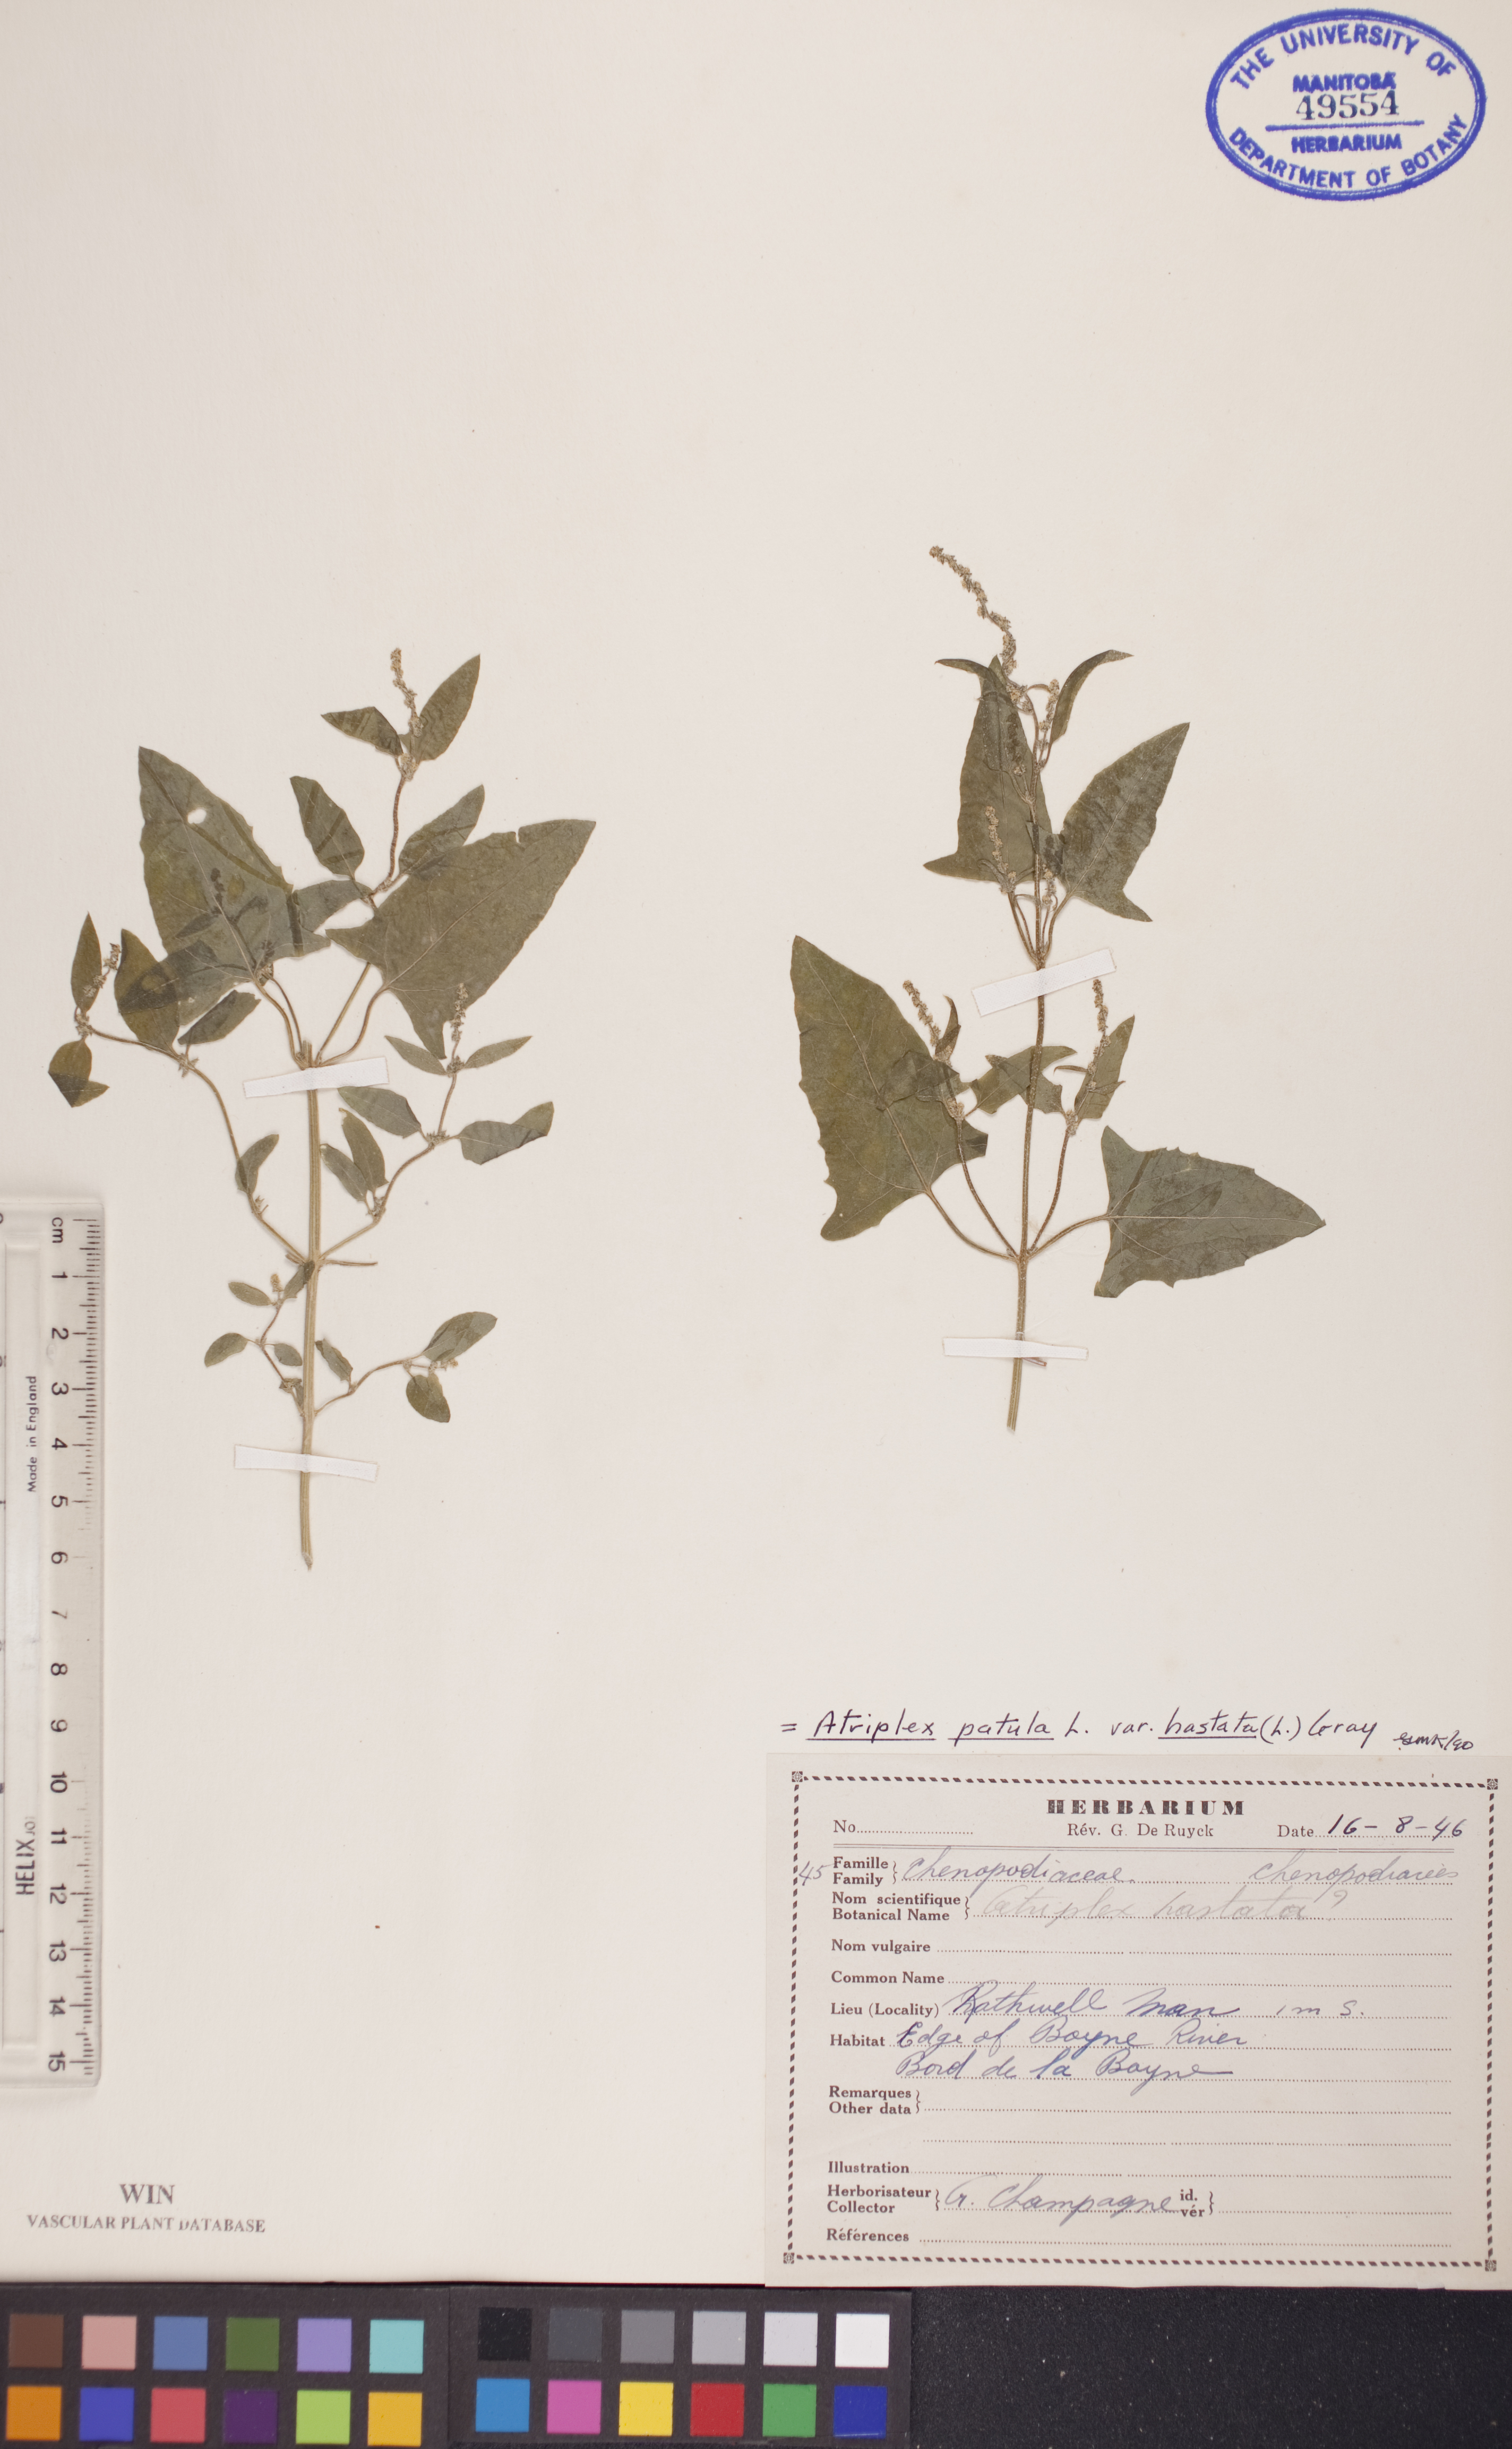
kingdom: Plantae
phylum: Tracheophyta
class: Magnoliopsida
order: Caryophyllales
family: Amaranthaceae
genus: Atriplex
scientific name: Atriplex
